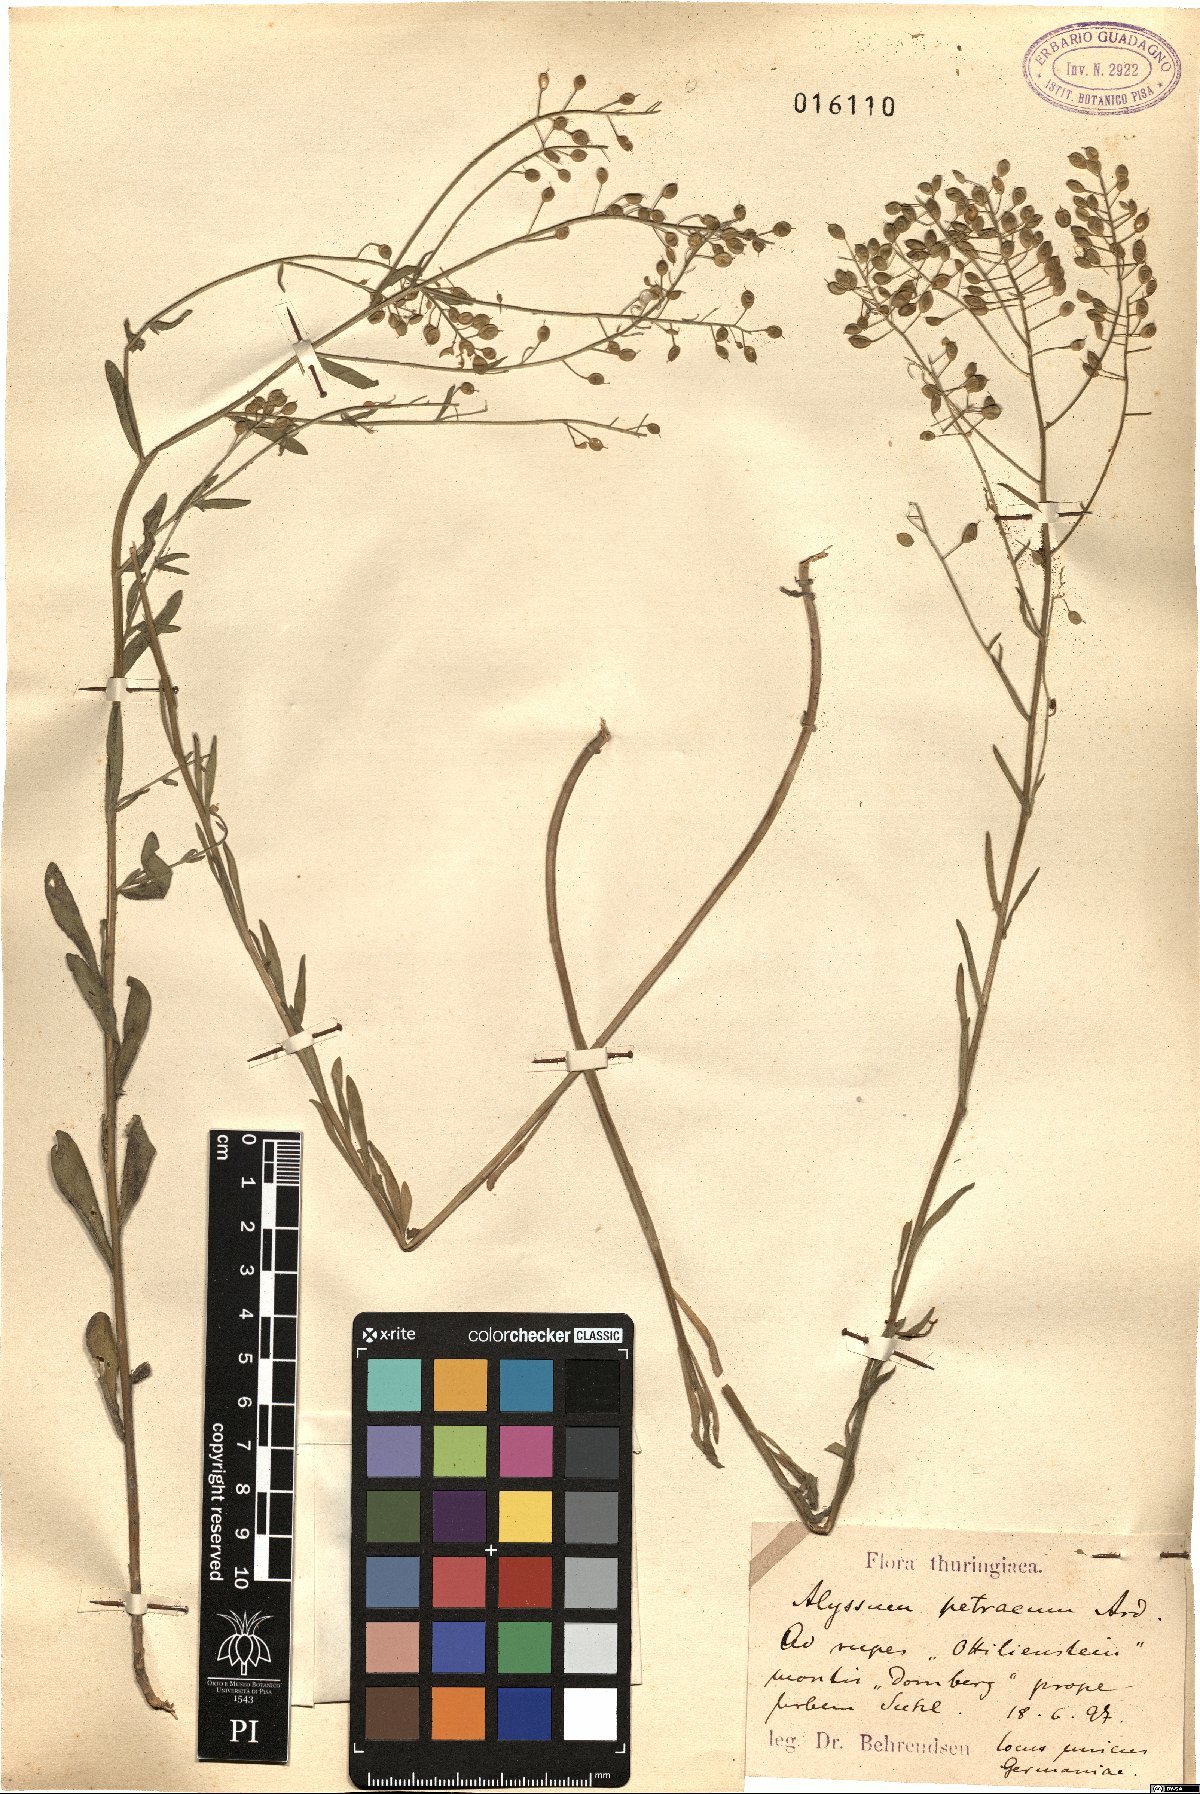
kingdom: Plantae
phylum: Tracheophyta
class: Magnoliopsida
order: Brassicales
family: Brassicaceae
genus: Aurinia
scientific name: Aurinia petraea
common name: Goldentuft
